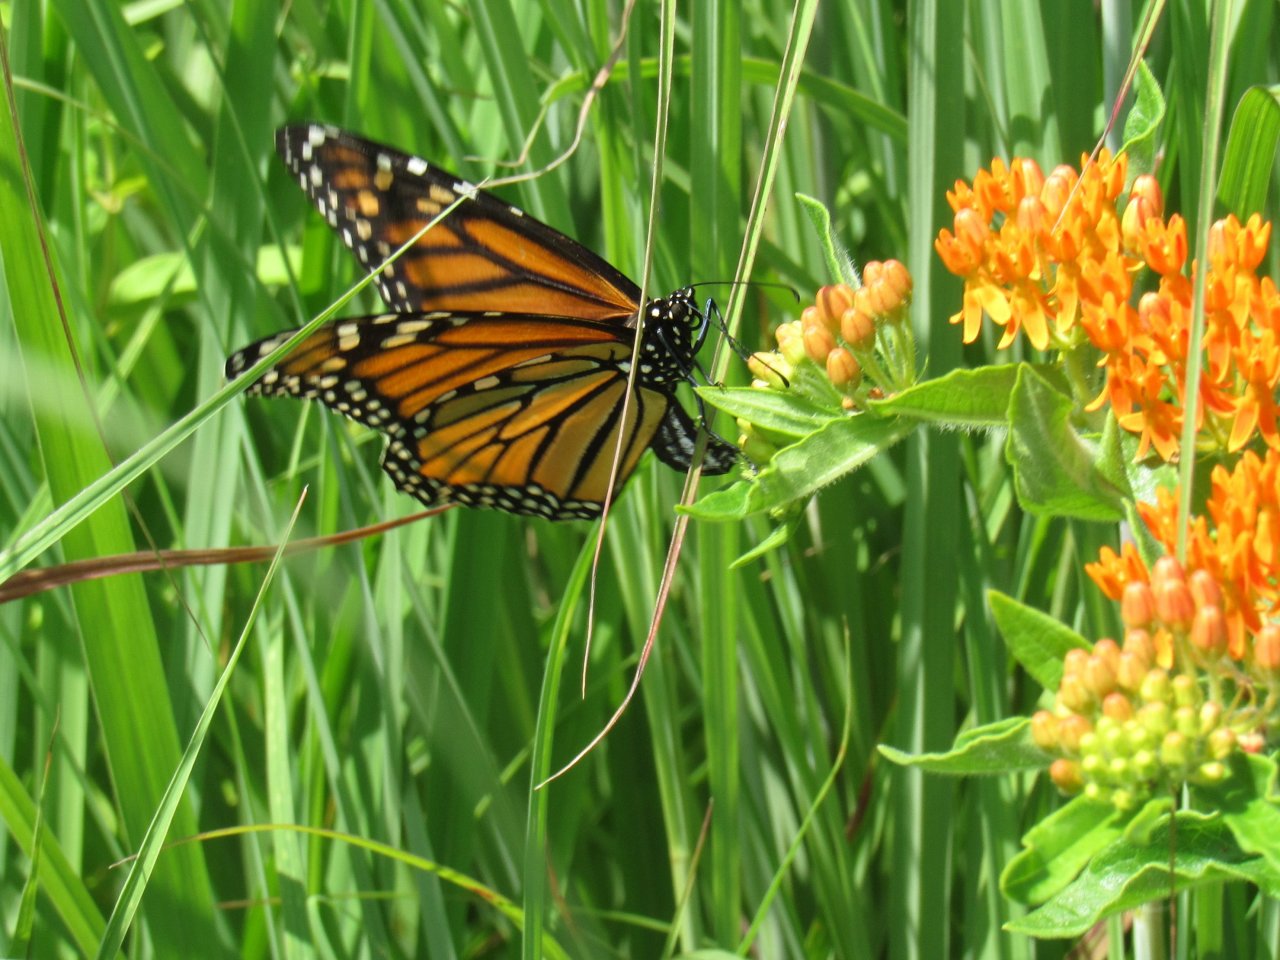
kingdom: Animalia
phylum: Arthropoda
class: Insecta
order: Lepidoptera
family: Nymphalidae
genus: Danaus
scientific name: Danaus plexippus
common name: Monarch
